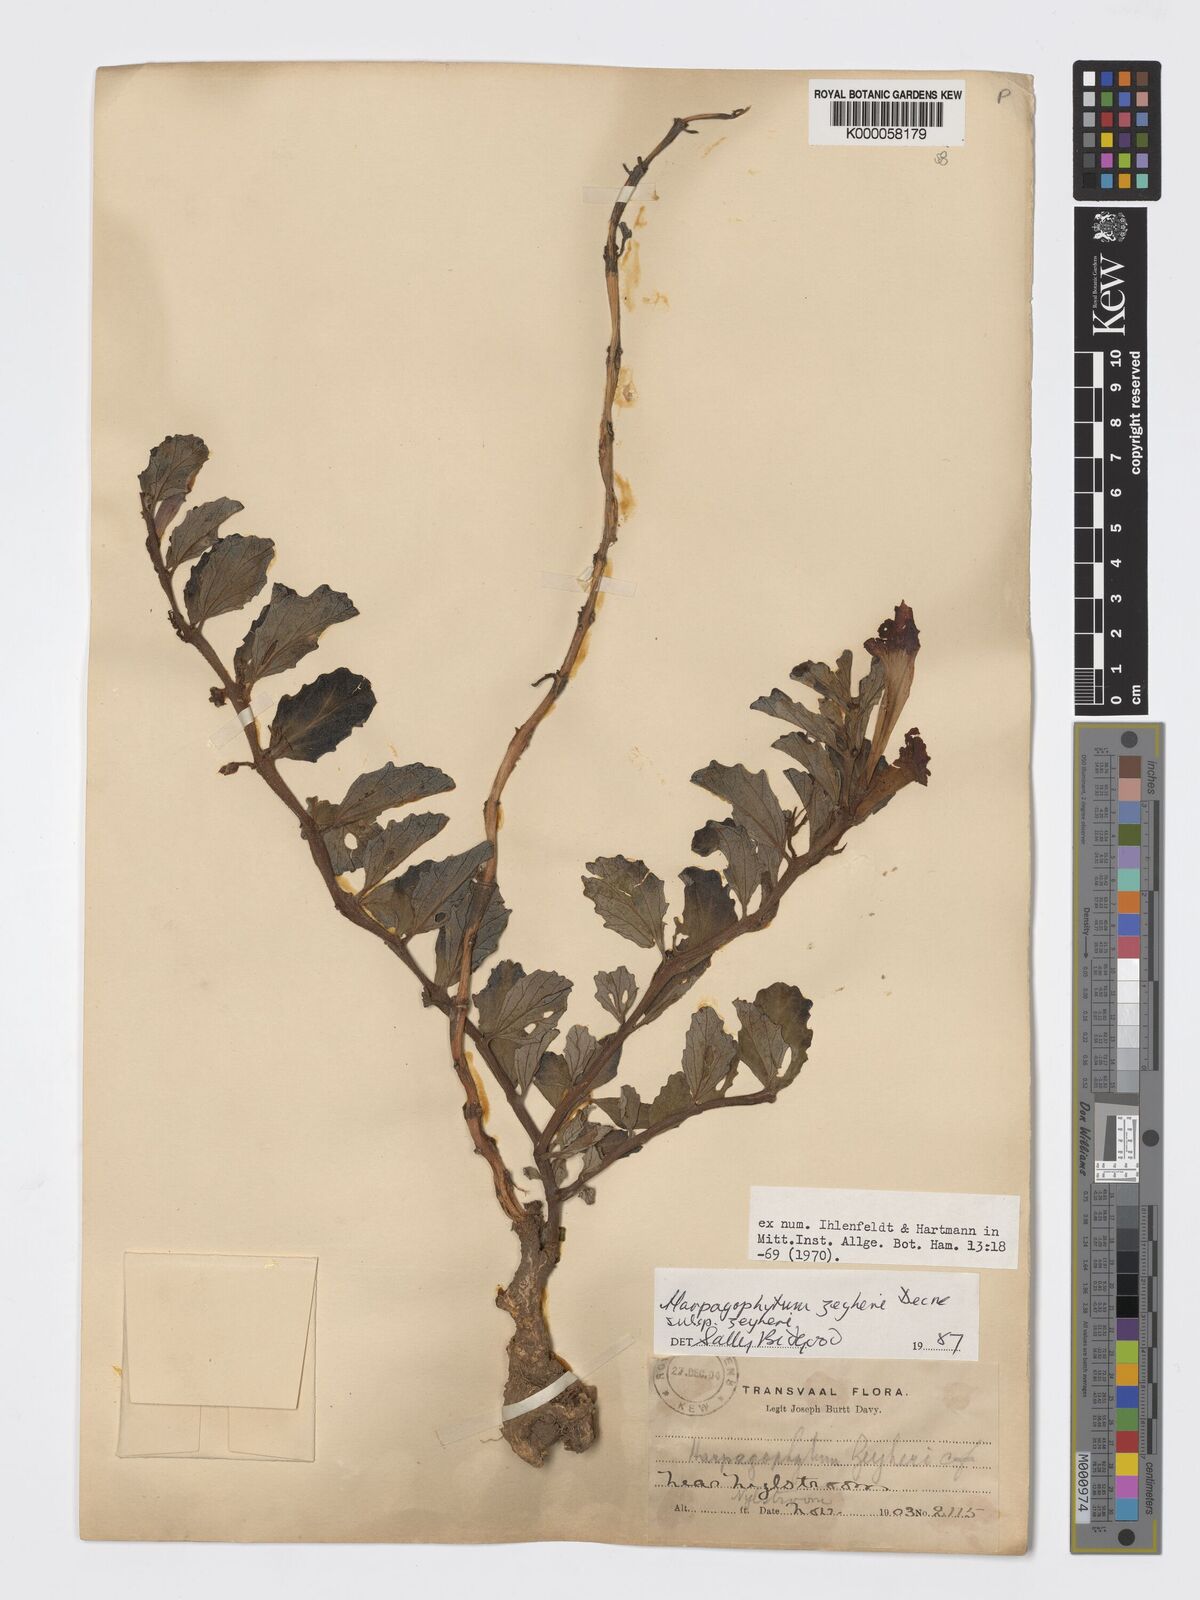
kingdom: Plantae
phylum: Tracheophyta
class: Magnoliopsida
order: Lamiales
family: Pedaliaceae
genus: Harpagophytum
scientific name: Harpagophytum zeyheri
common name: Grappleplant
